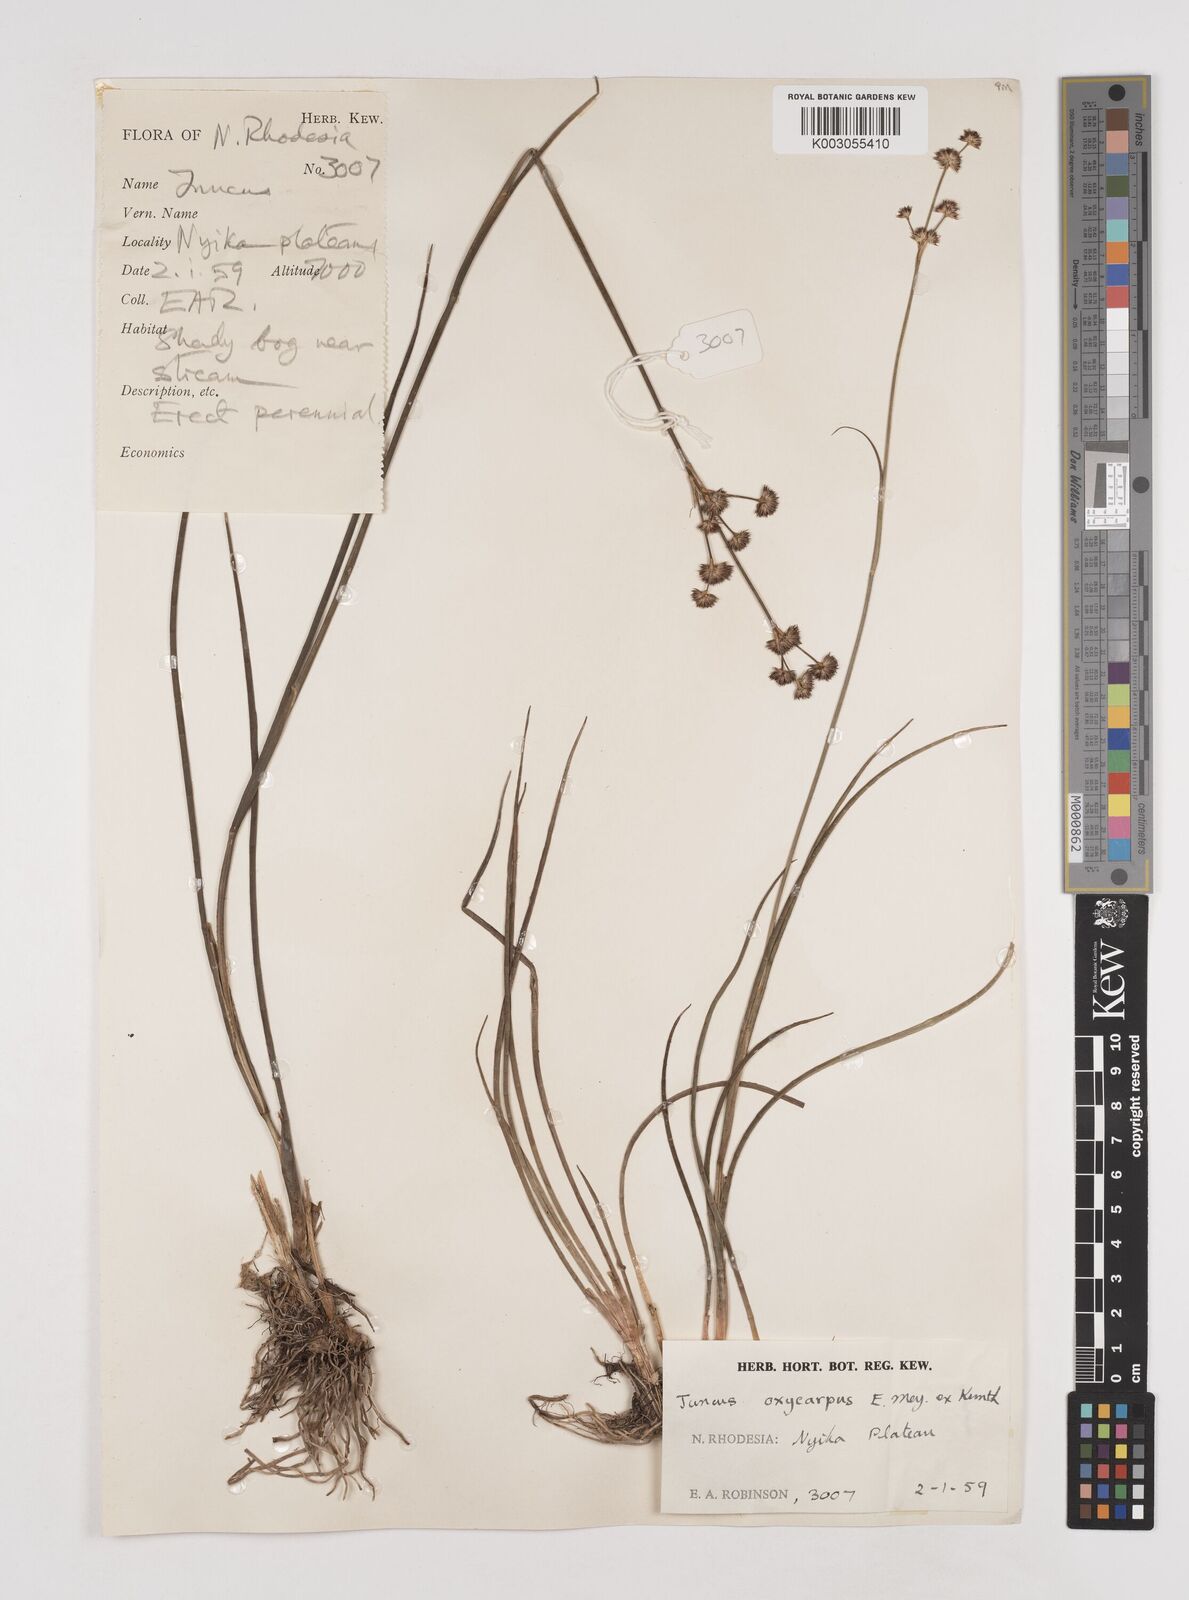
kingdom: Plantae
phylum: Tracheophyta
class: Liliopsida
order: Poales
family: Juncaceae
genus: Juncus
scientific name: Juncus oxycarpus
